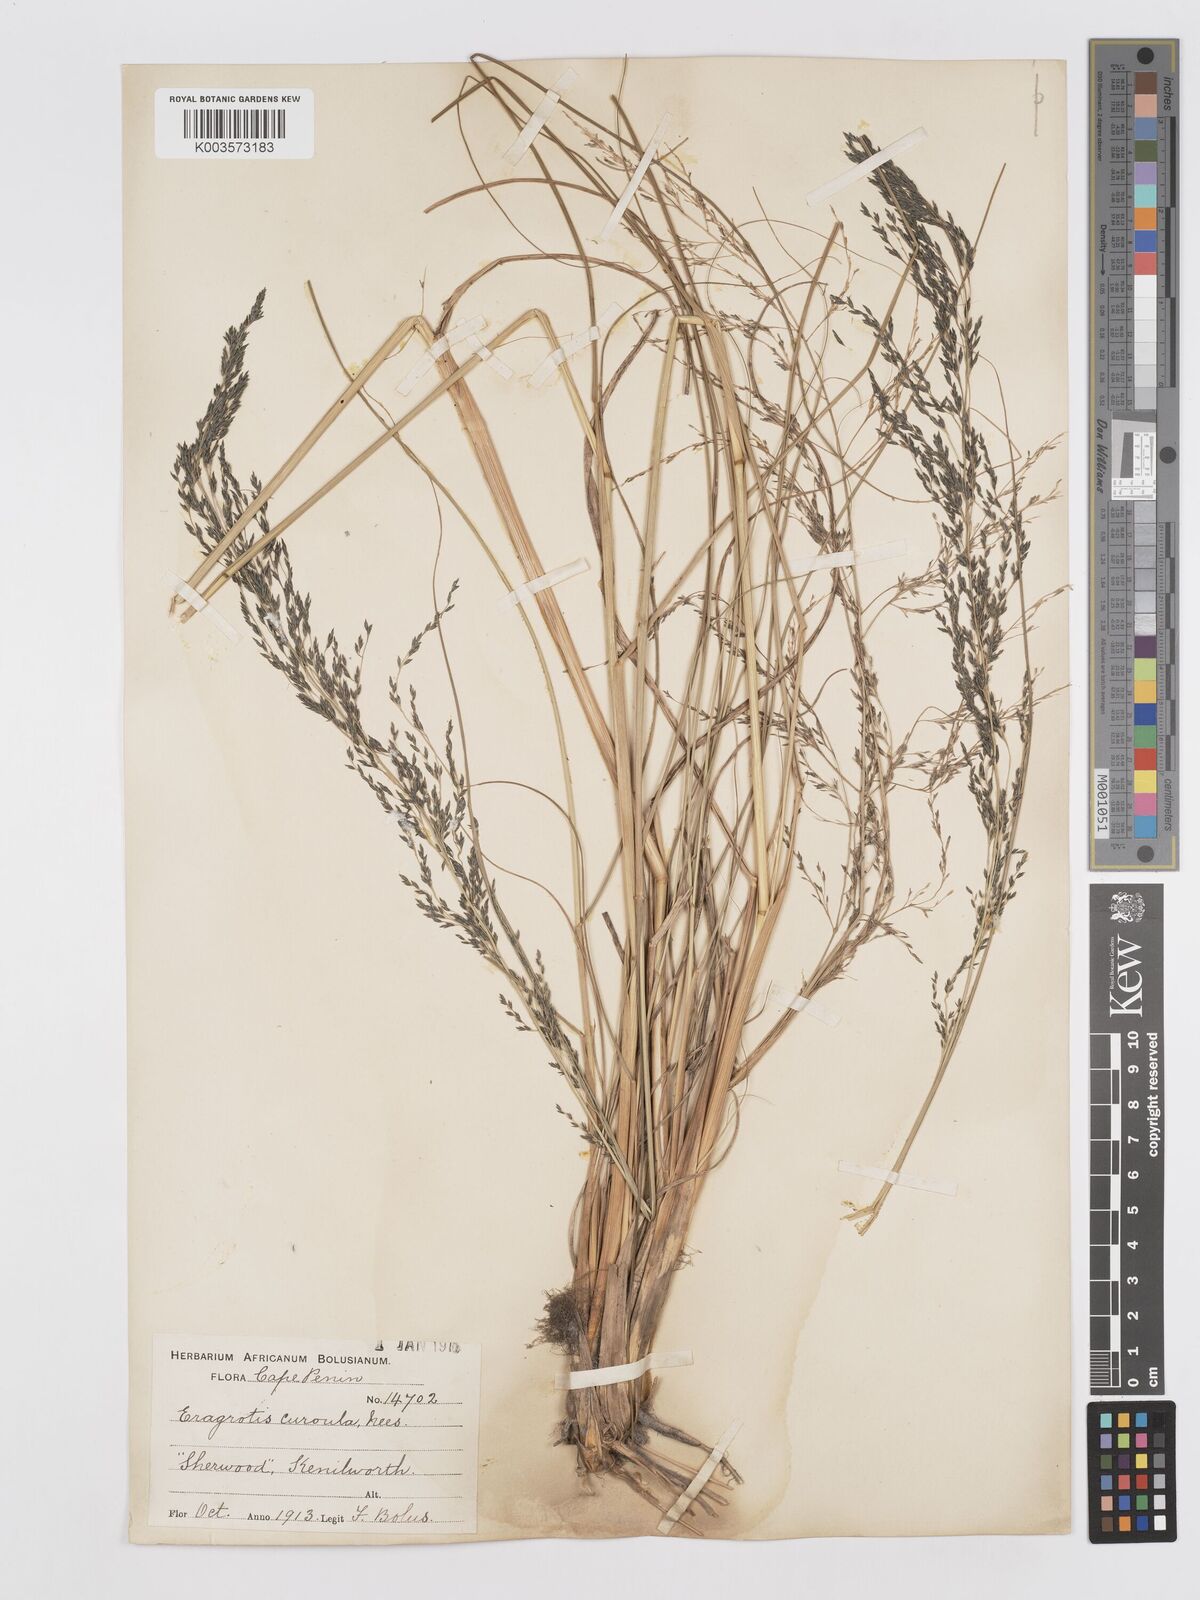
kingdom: Plantae
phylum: Tracheophyta
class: Liliopsida
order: Poales
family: Poaceae
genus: Eragrostis
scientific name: Eragrostis curvula
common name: African love-grass
